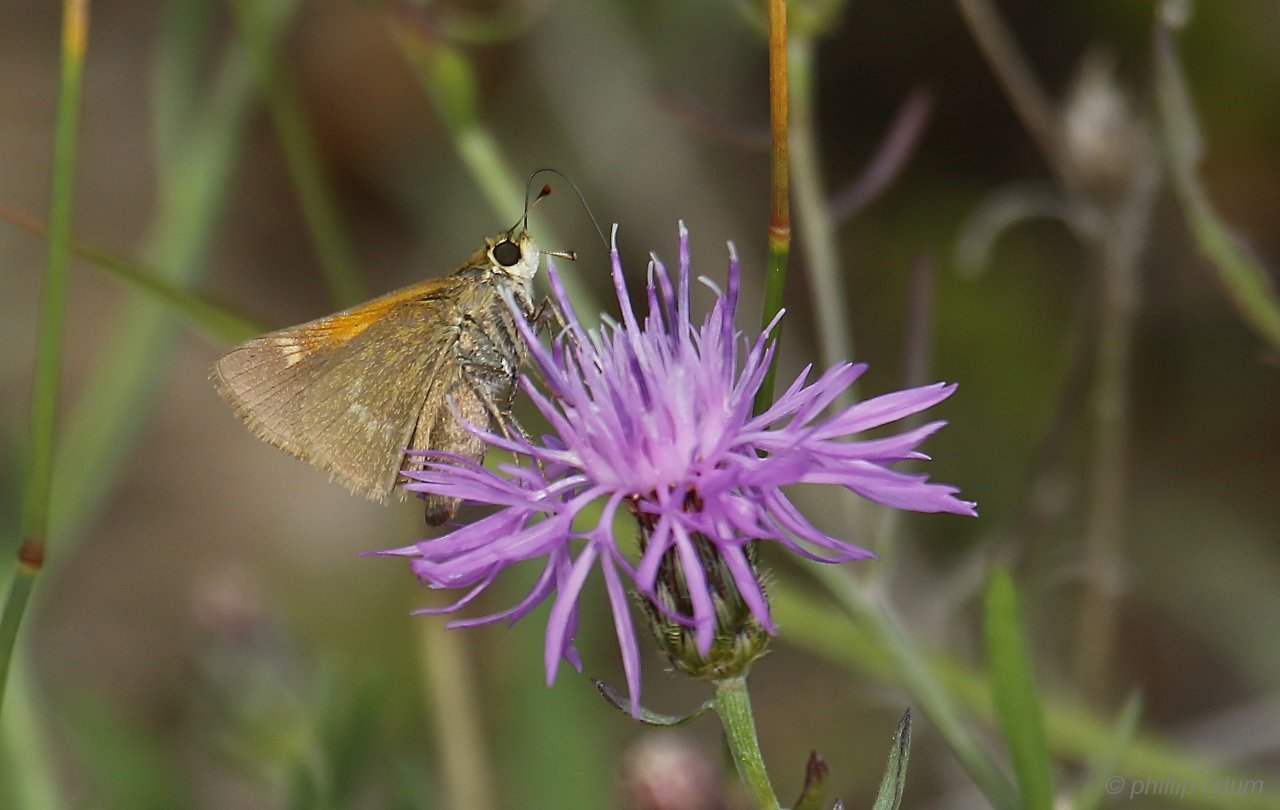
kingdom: Animalia
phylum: Arthropoda
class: Insecta
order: Lepidoptera
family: Hesperiidae
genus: Polites
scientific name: Polites themistocles
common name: Tawny-edged Skipper
